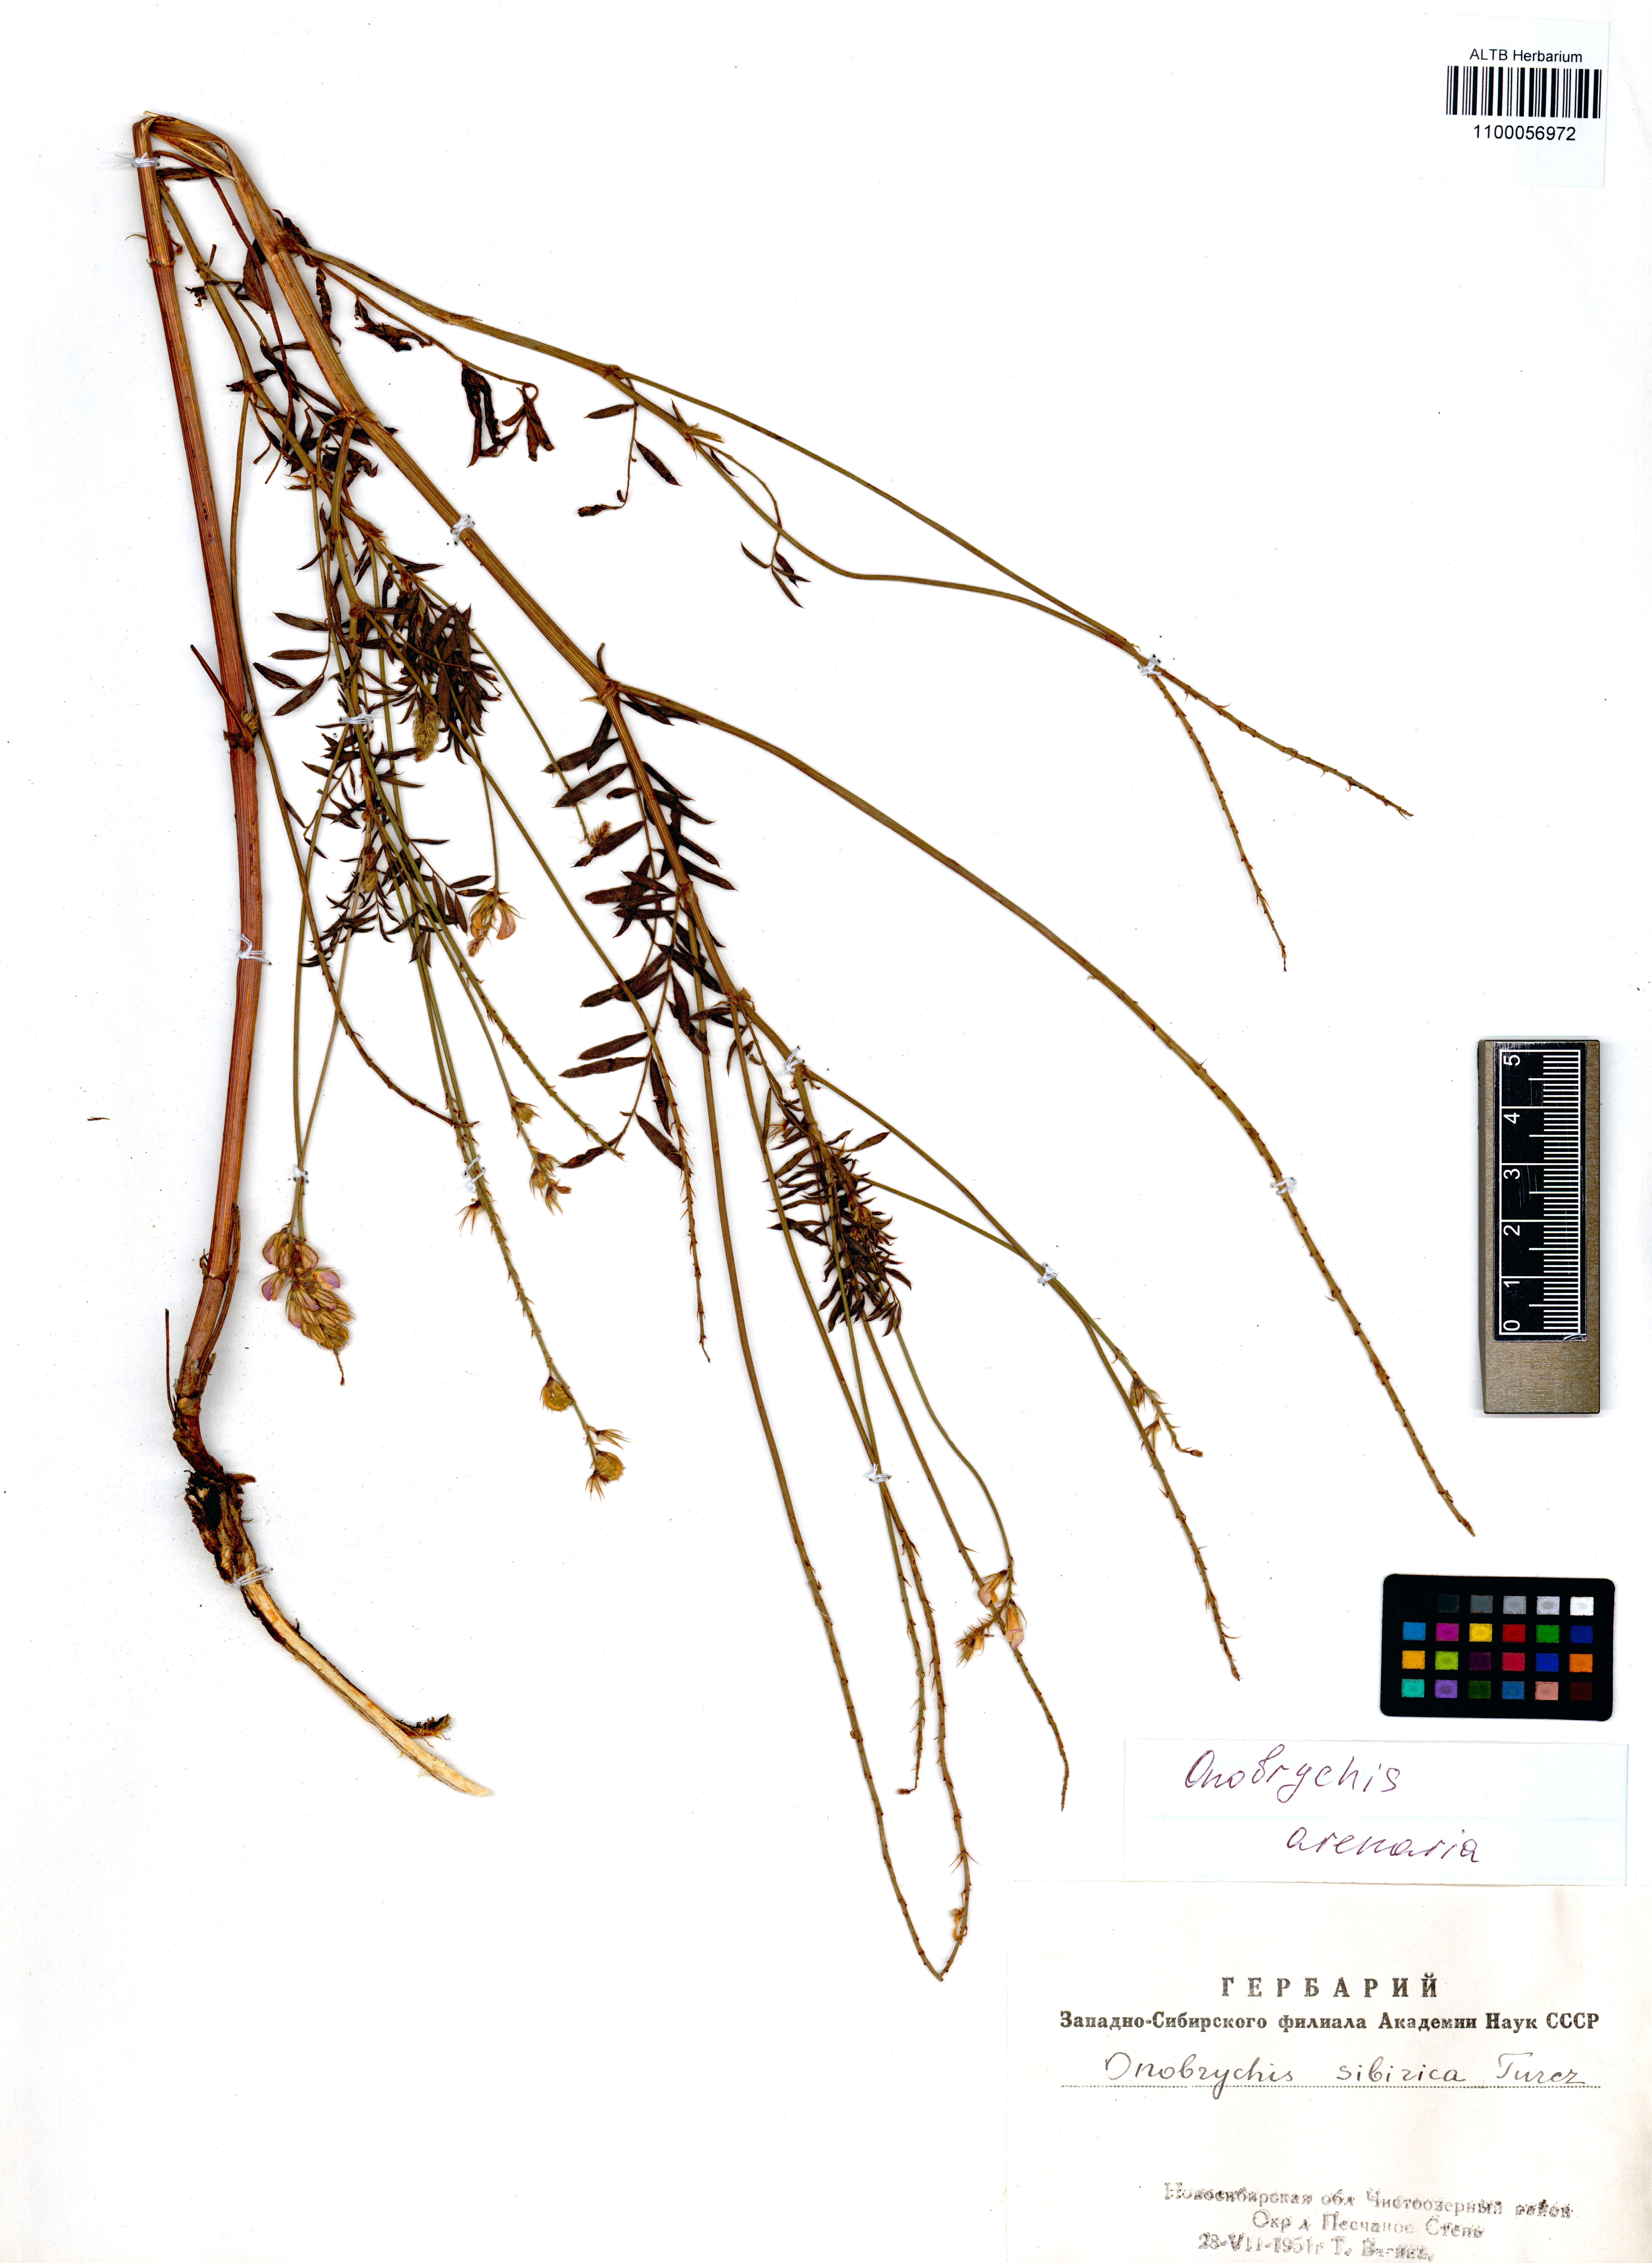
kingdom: Plantae
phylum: Tracheophyta
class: Magnoliopsida
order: Fabales
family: Fabaceae
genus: Onobrychis
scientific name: Onobrychis arenaria
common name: Sand esparcet
